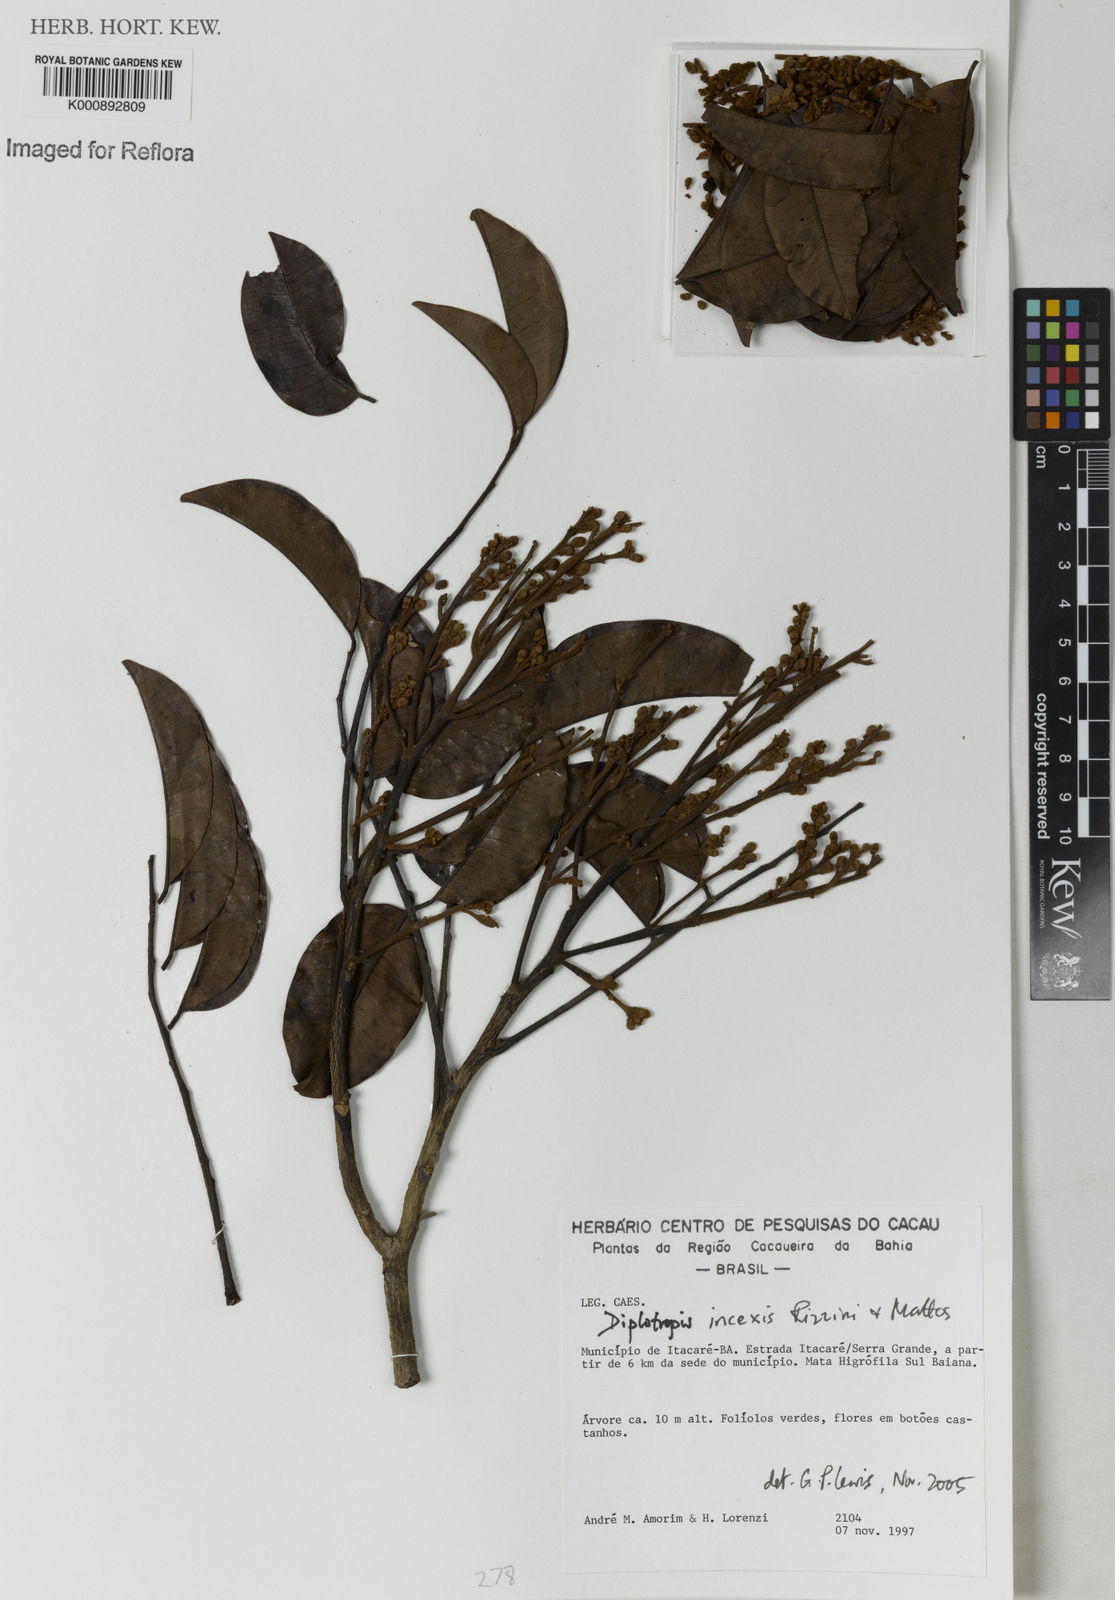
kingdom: Plantae
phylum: Tracheophyta
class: Magnoliopsida
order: Fabales
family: Fabaceae
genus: Diplotropis
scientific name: Diplotropis incexis
